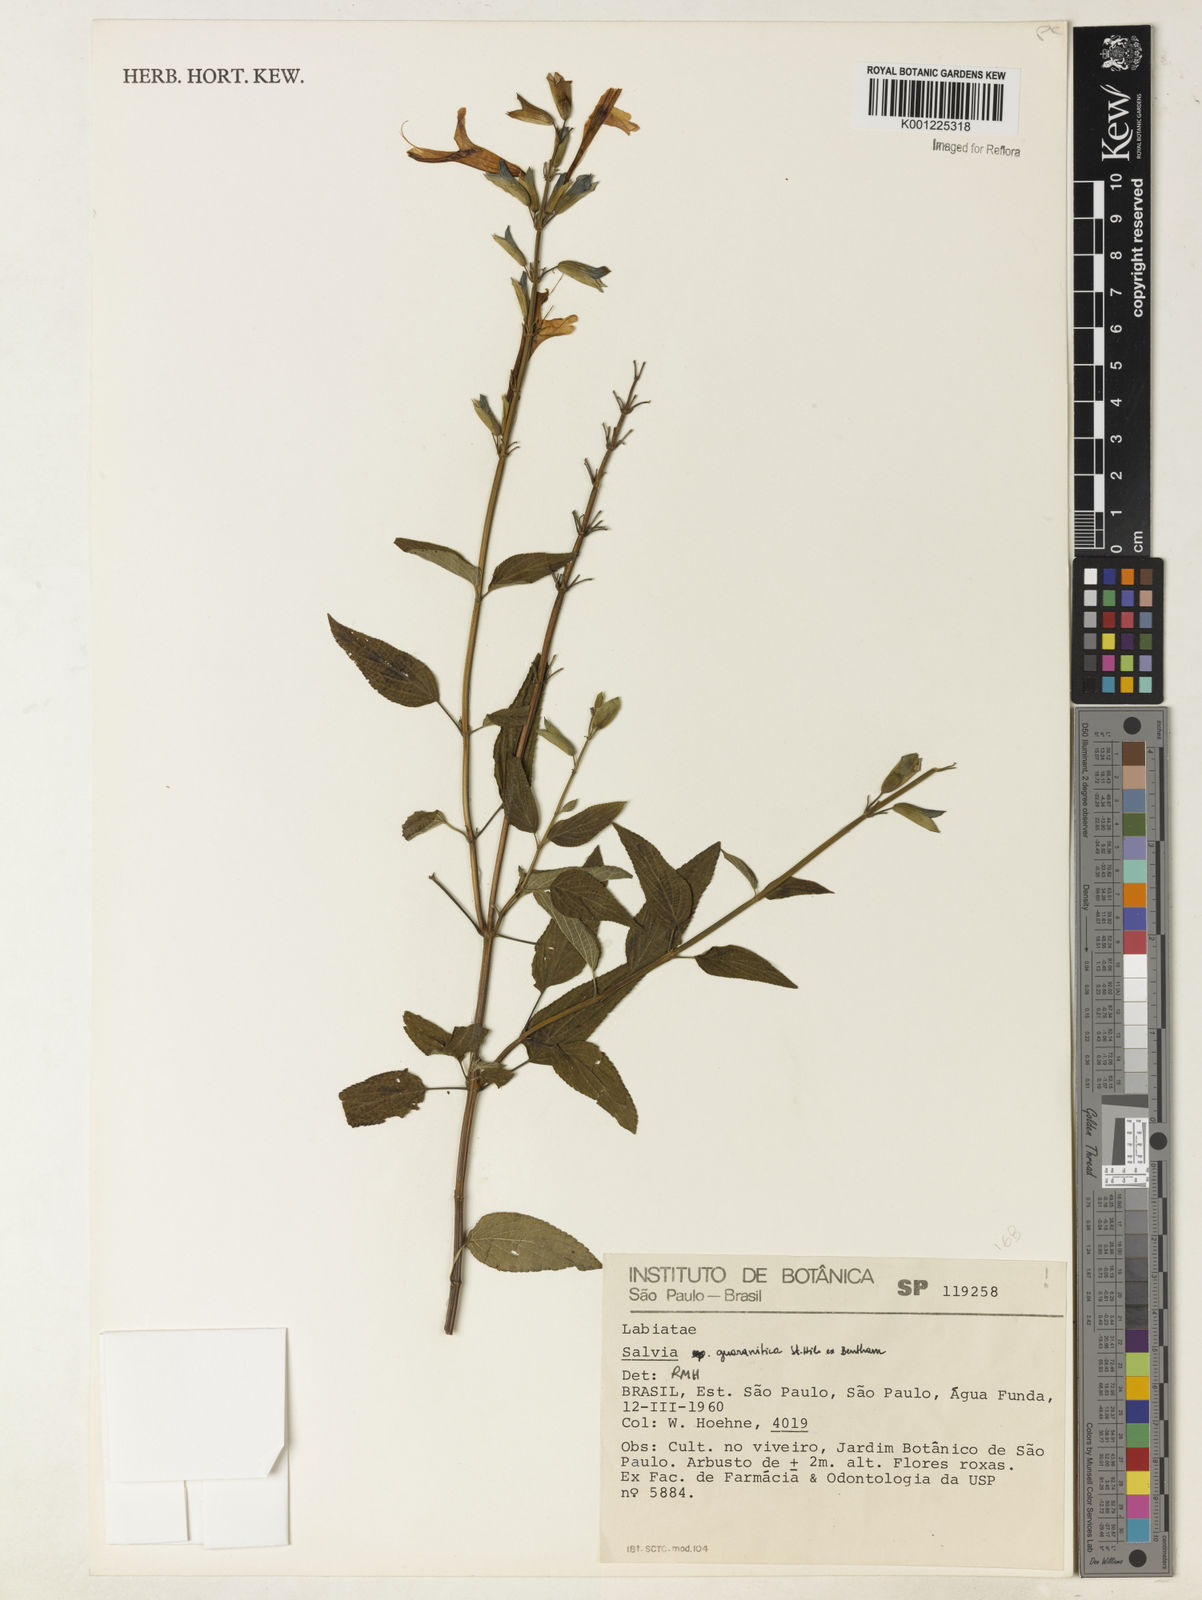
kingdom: Plantae
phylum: Tracheophyta
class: Magnoliopsida
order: Lamiales
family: Lamiaceae
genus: Salvia
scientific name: Salvia guaranitica
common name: Anise-scented sage
